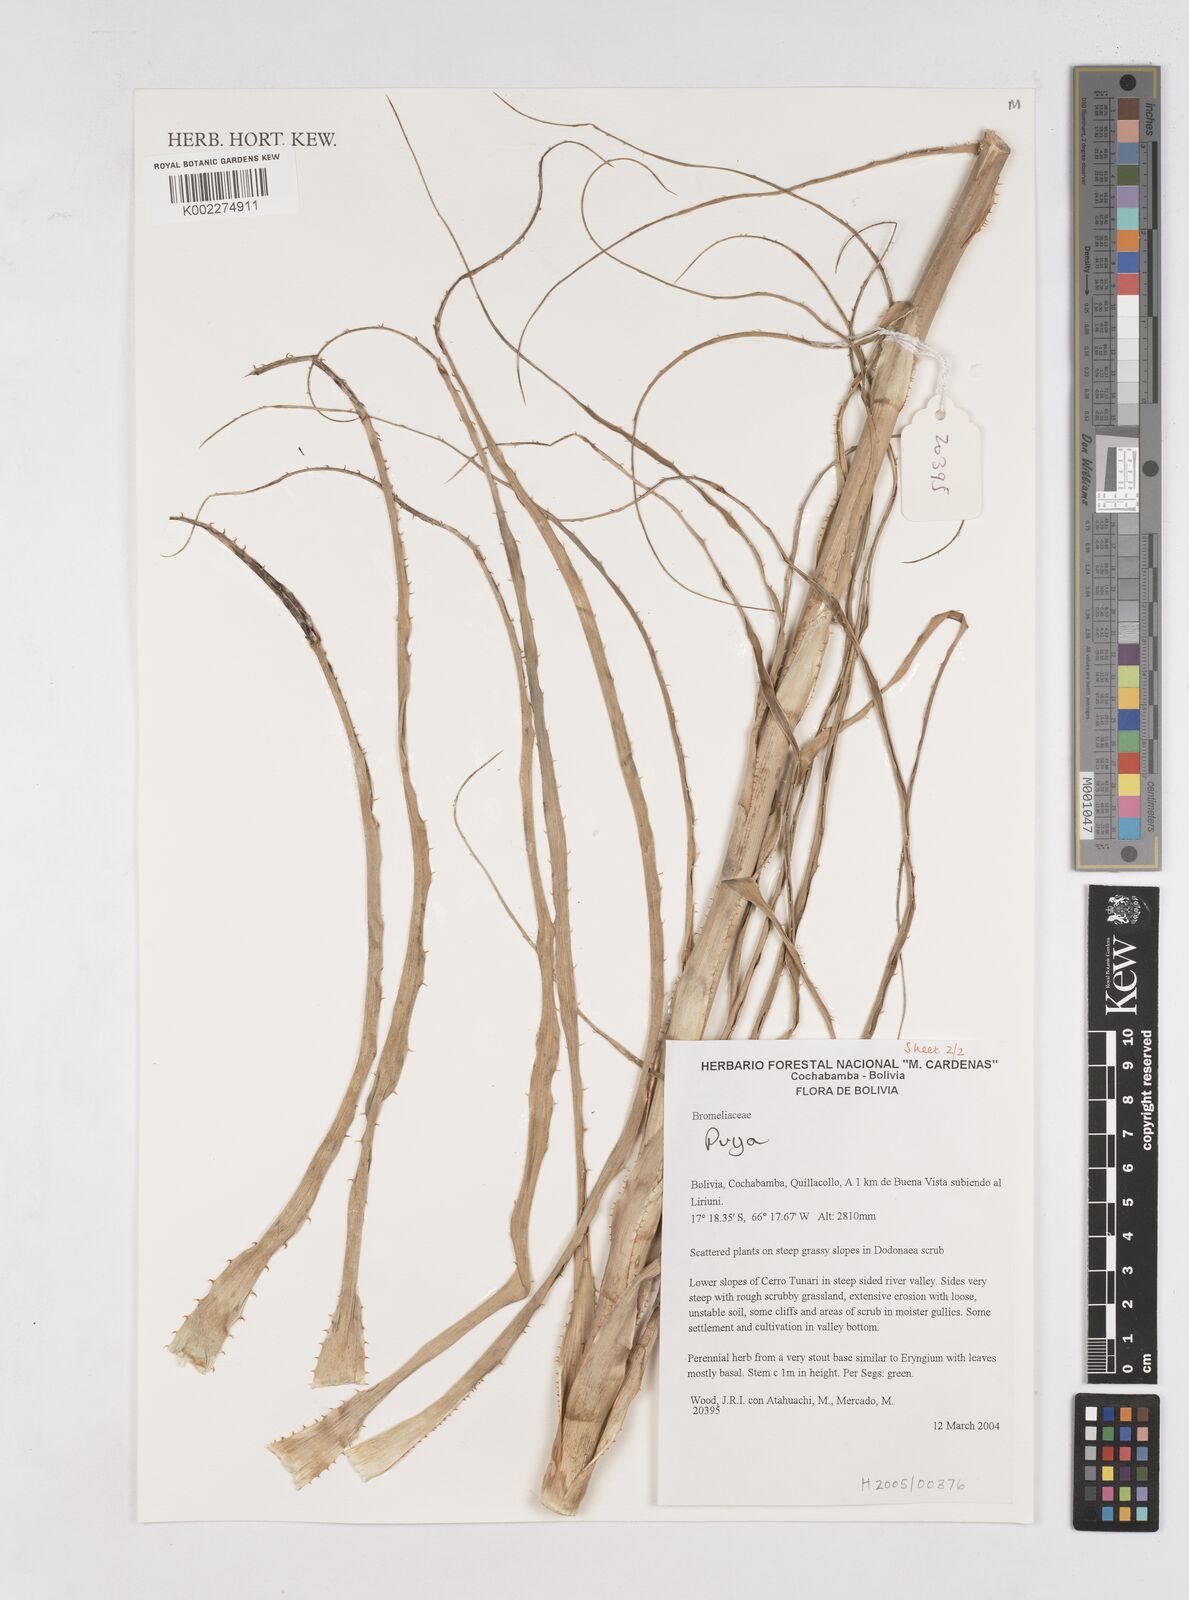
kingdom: Plantae
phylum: Tracheophyta
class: Liliopsida
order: Poales
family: Bromeliaceae
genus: Puya
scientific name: Puya
